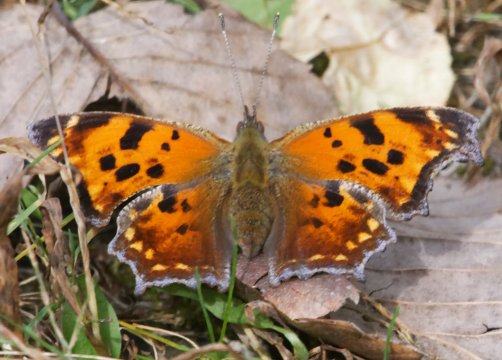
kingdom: Animalia
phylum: Arthropoda
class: Insecta
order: Lepidoptera
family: Nymphalidae
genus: Polygonia
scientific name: Polygonia comma
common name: Eastern Comma
